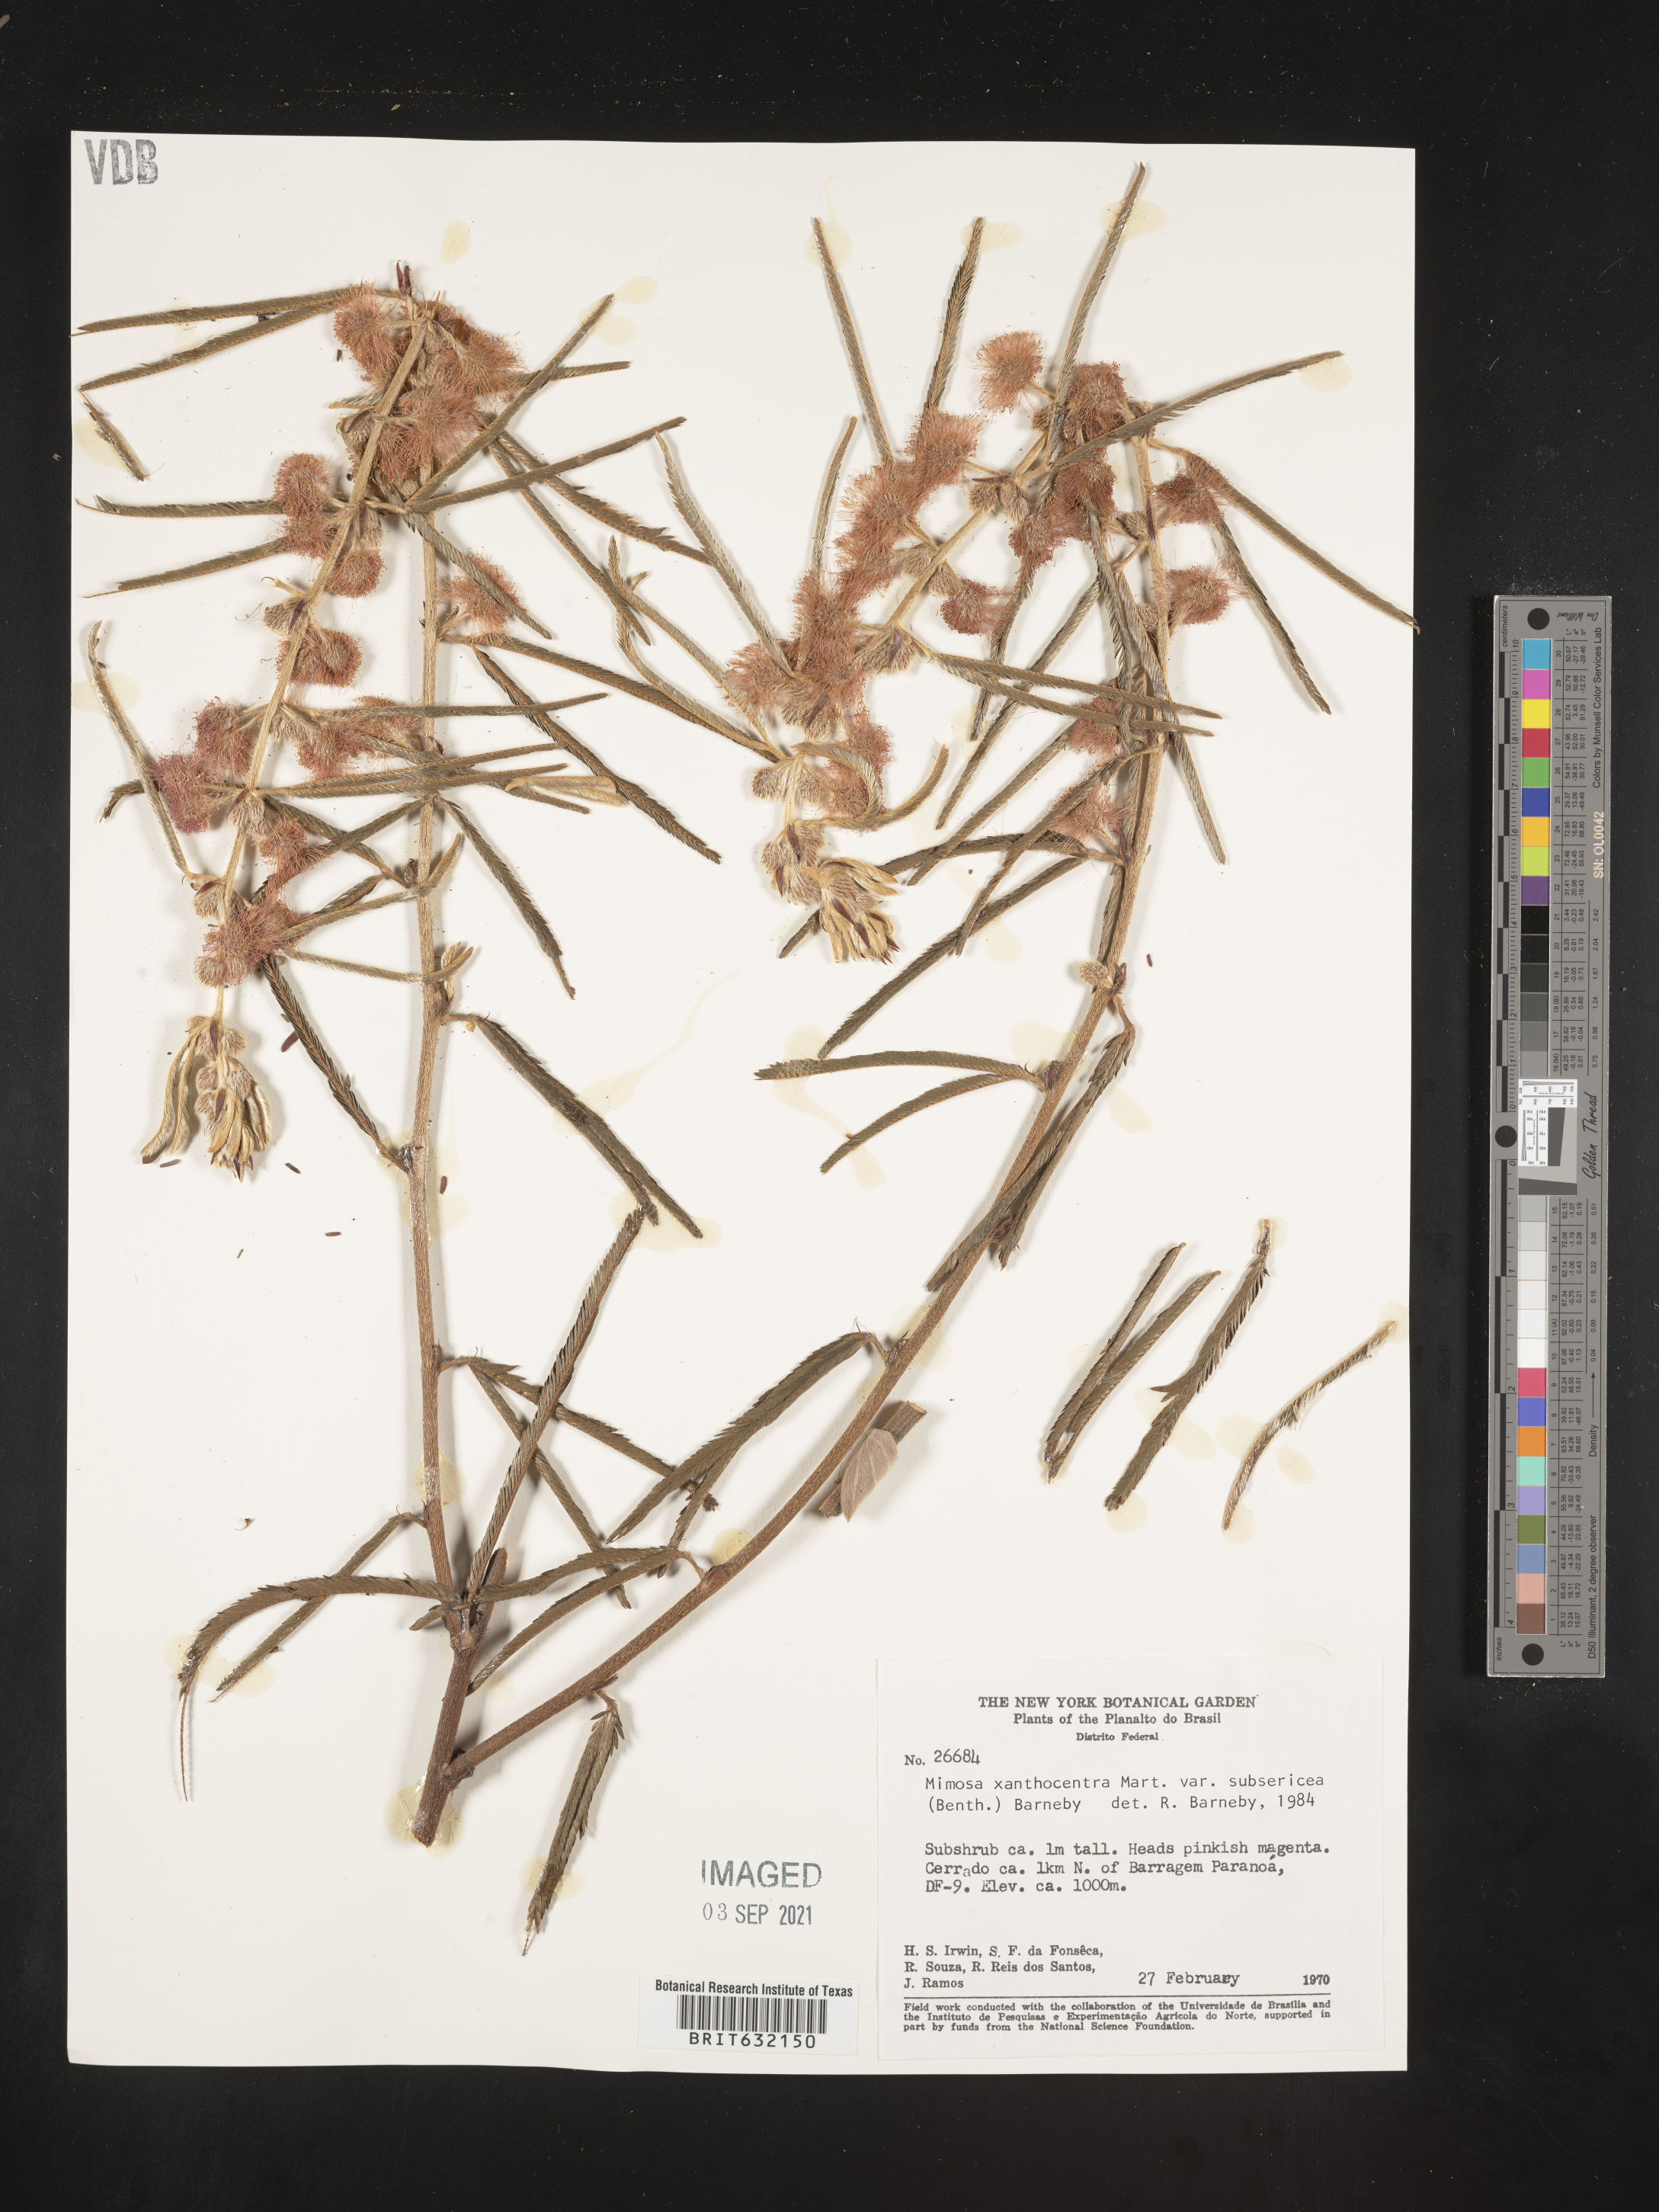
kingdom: Plantae
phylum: Tracheophyta
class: Magnoliopsida
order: Fabales
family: Fabaceae
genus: Mimosa
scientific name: Mimosa
